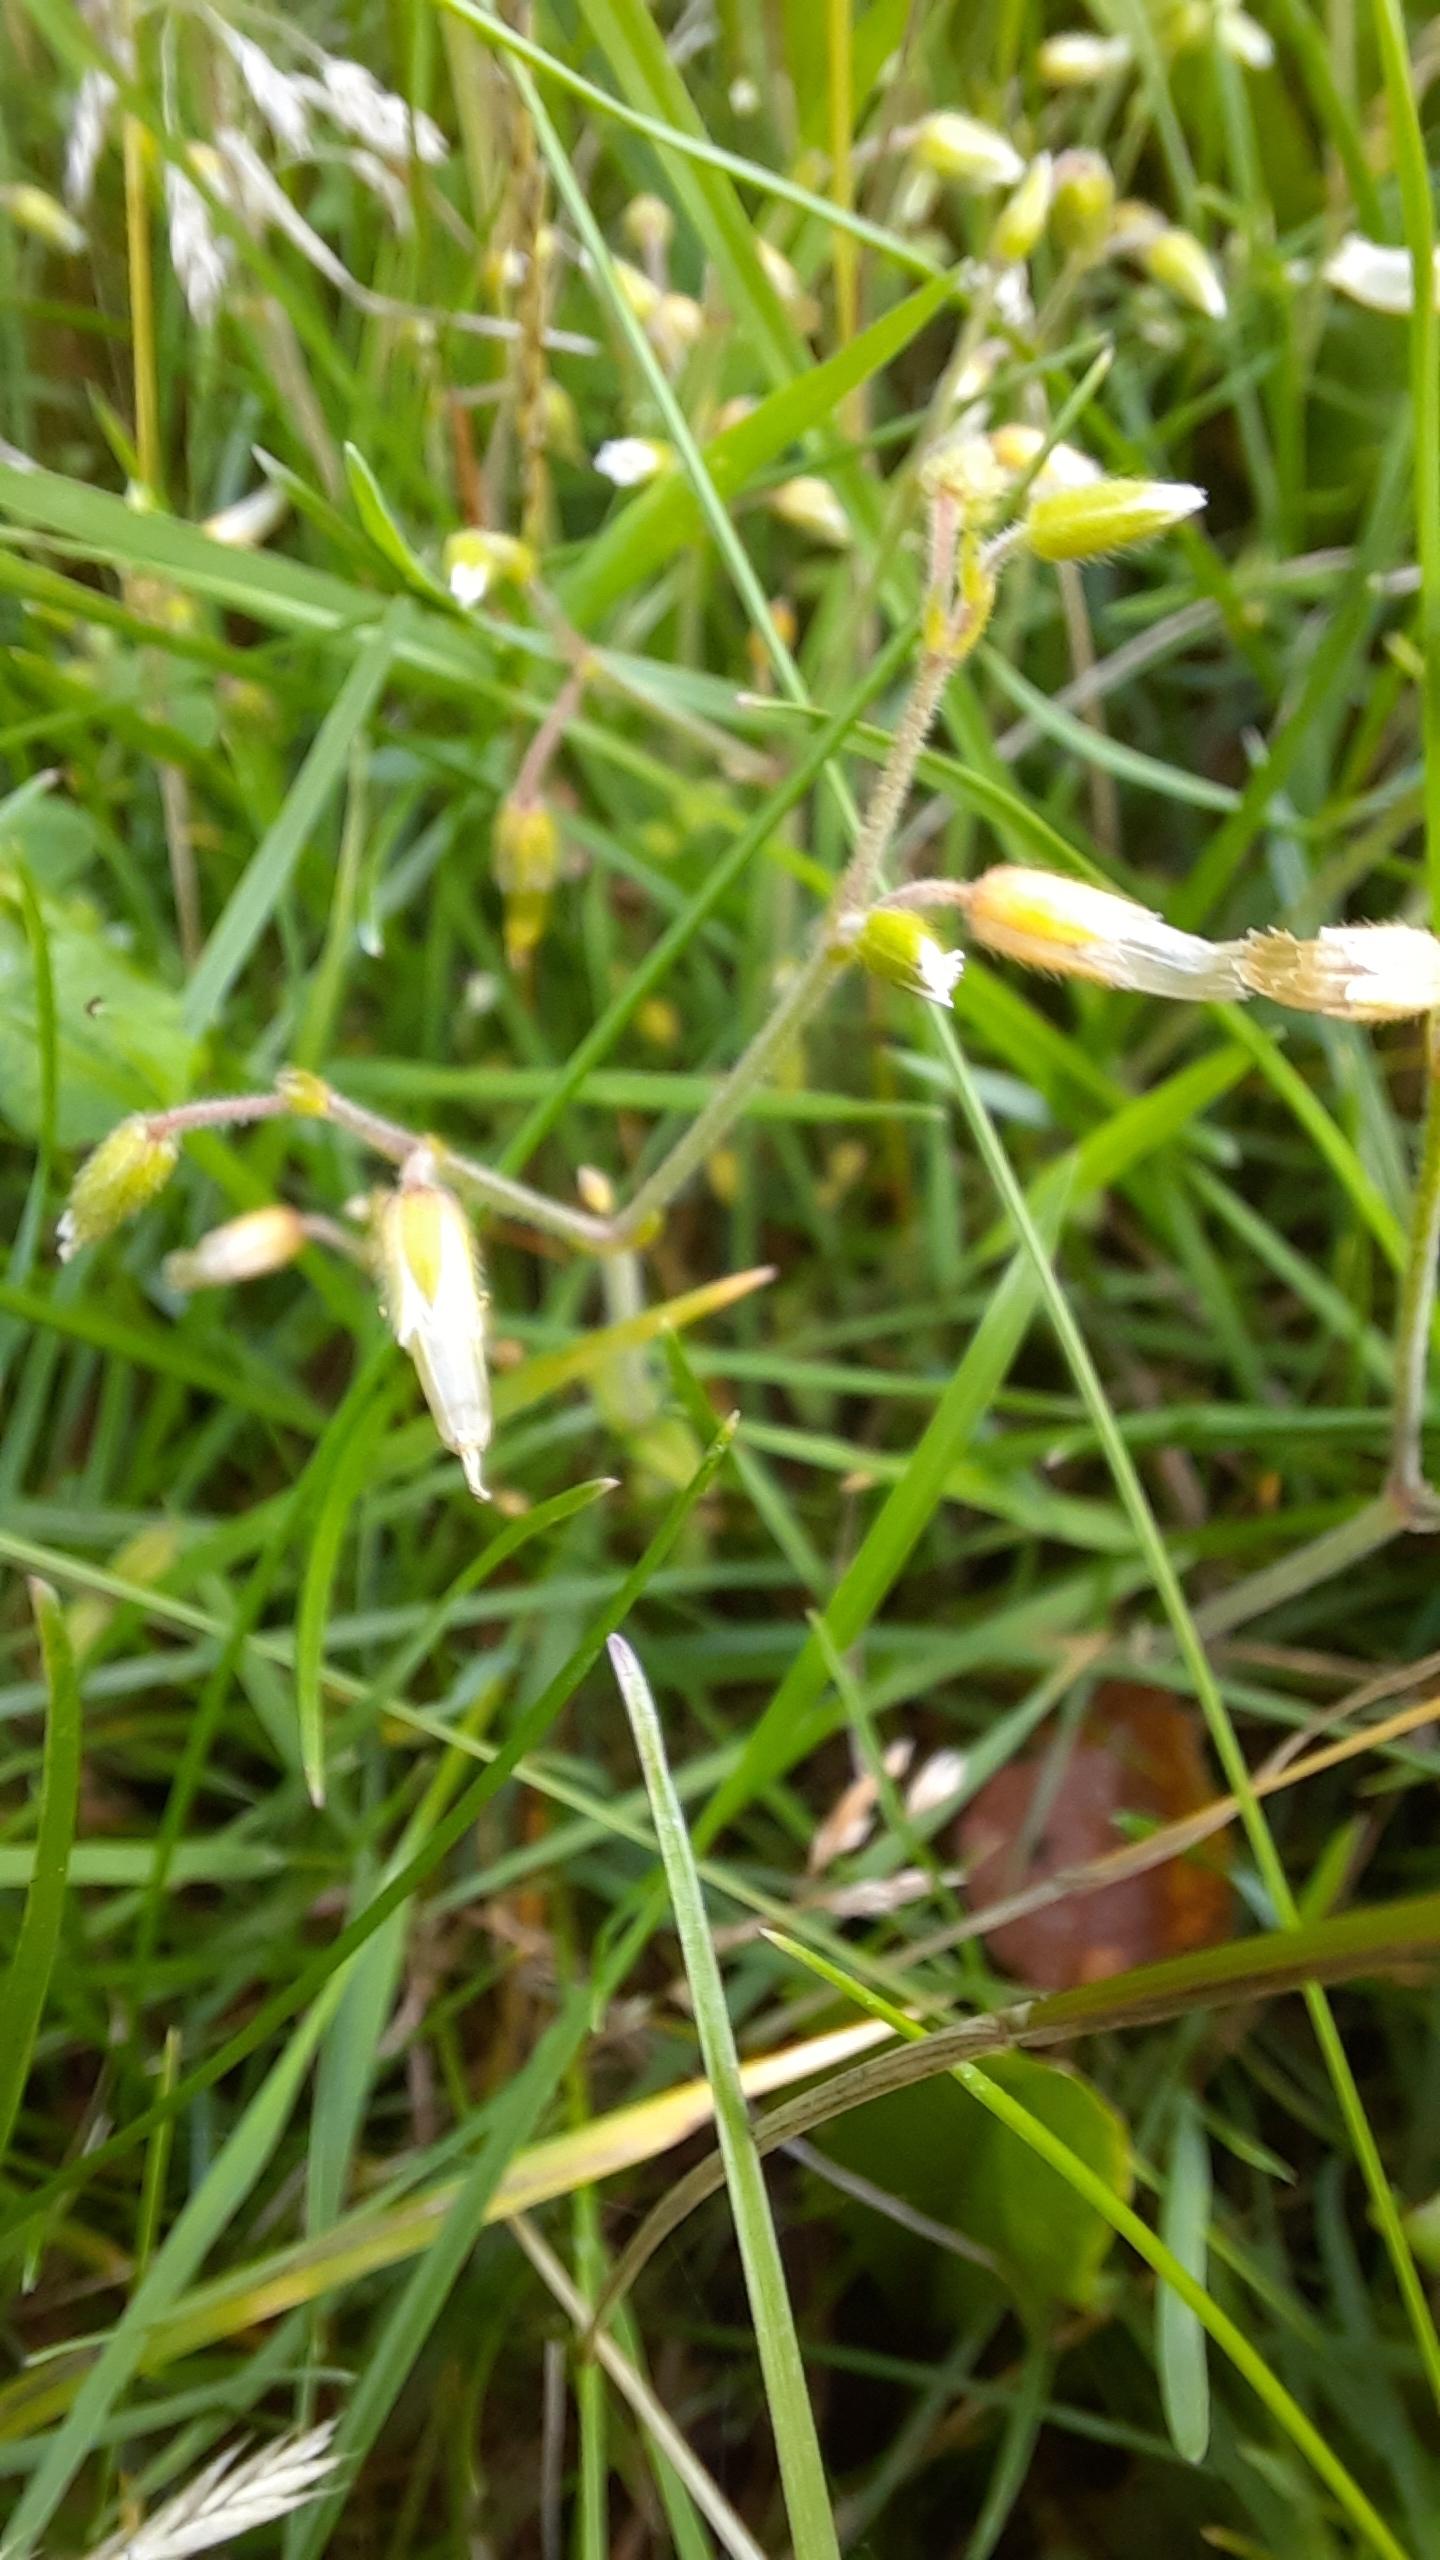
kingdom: Plantae
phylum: Tracheophyta
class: Magnoliopsida
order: Caryophyllales
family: Caryophyllaceae
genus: Cerastium
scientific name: Cerastium fontanum
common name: Almindelig hønsetarm
